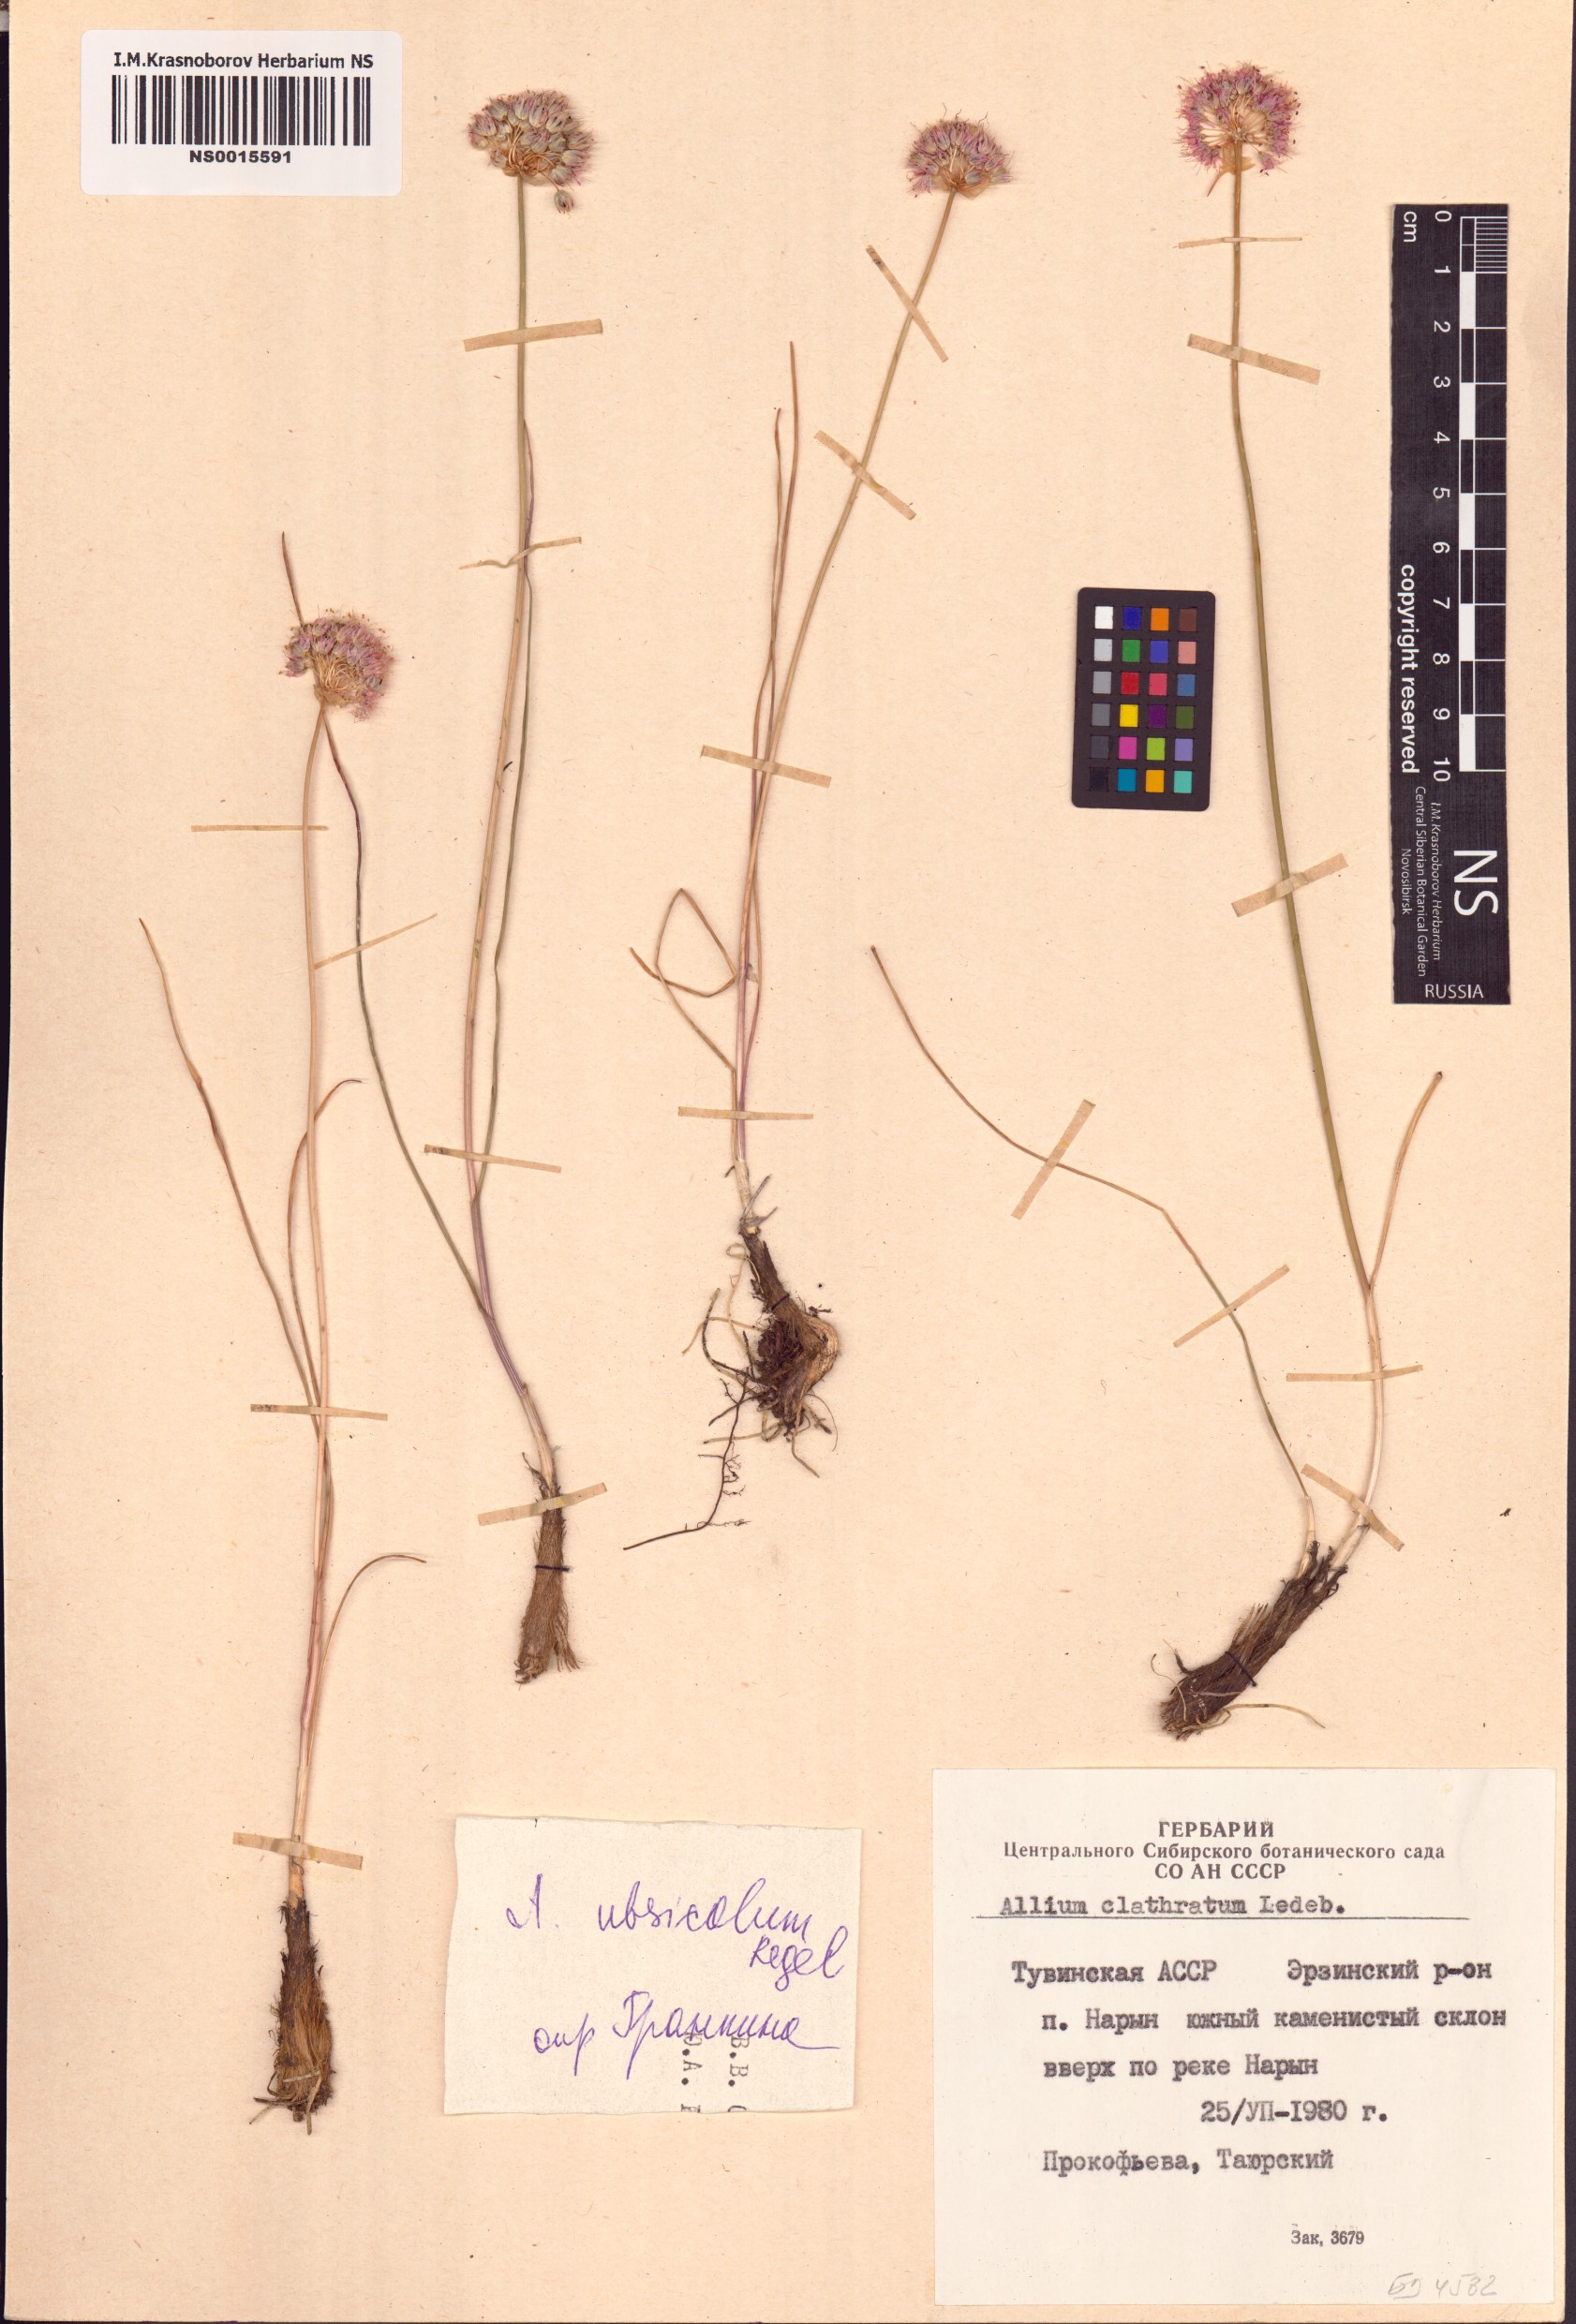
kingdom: Plantae
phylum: Tracheophyta
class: Liliopsida
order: Asparagales
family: Amaryllidaceae
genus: Allium
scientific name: Allium ubsicola
